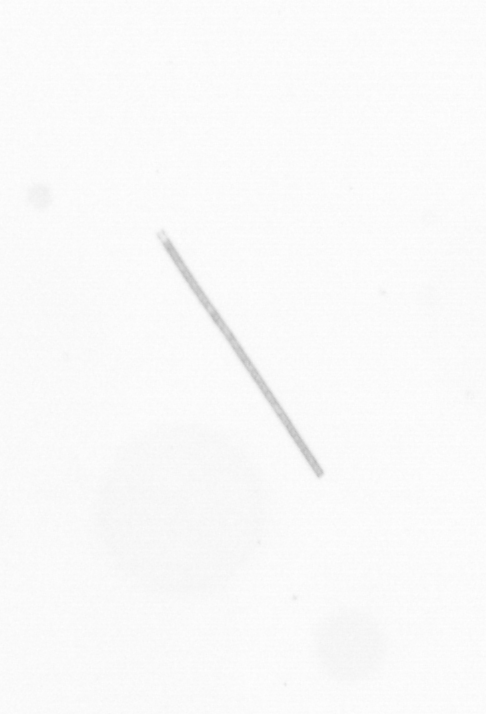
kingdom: Chromista
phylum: Ochrophyta
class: Bacillariophyceae
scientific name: Bacillariophyceae
